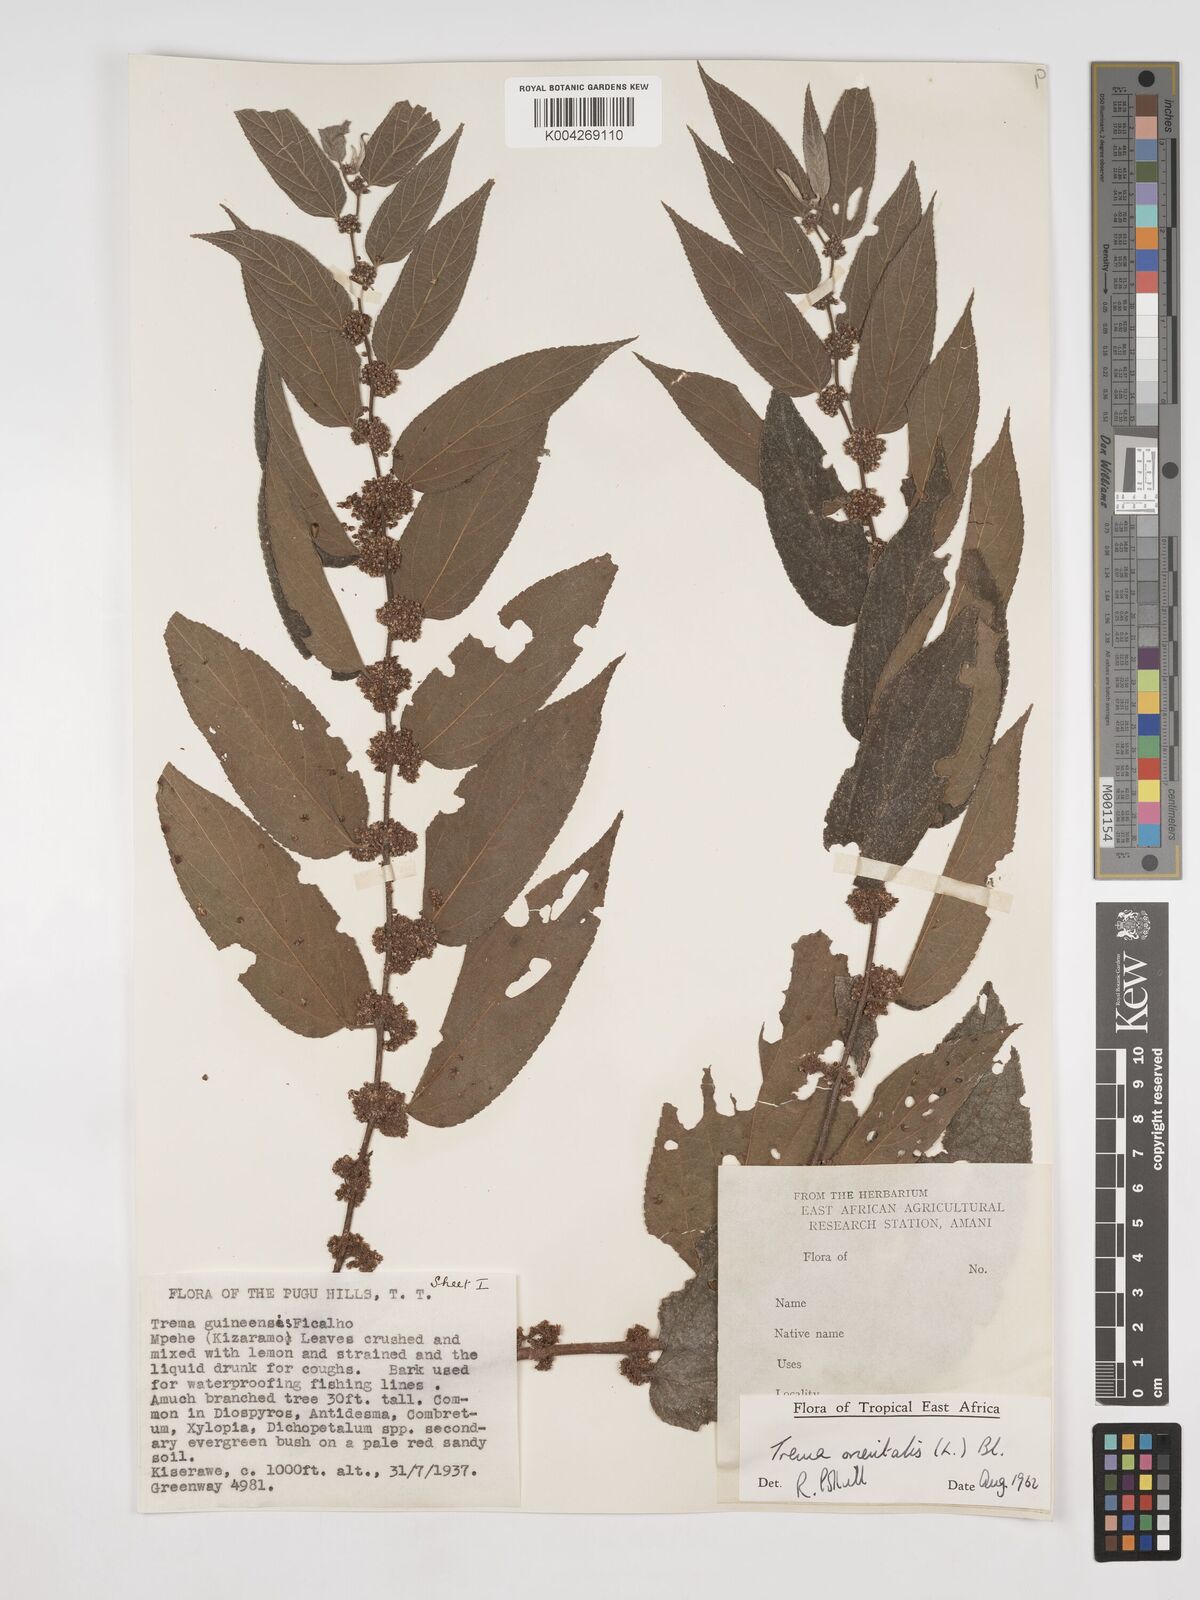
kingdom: Plantae
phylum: Tracheophyta
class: Magnoliopsida
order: Rosales
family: Cannabaceae
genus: Trema
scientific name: Trema orientale
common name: Indian charcoal tree
